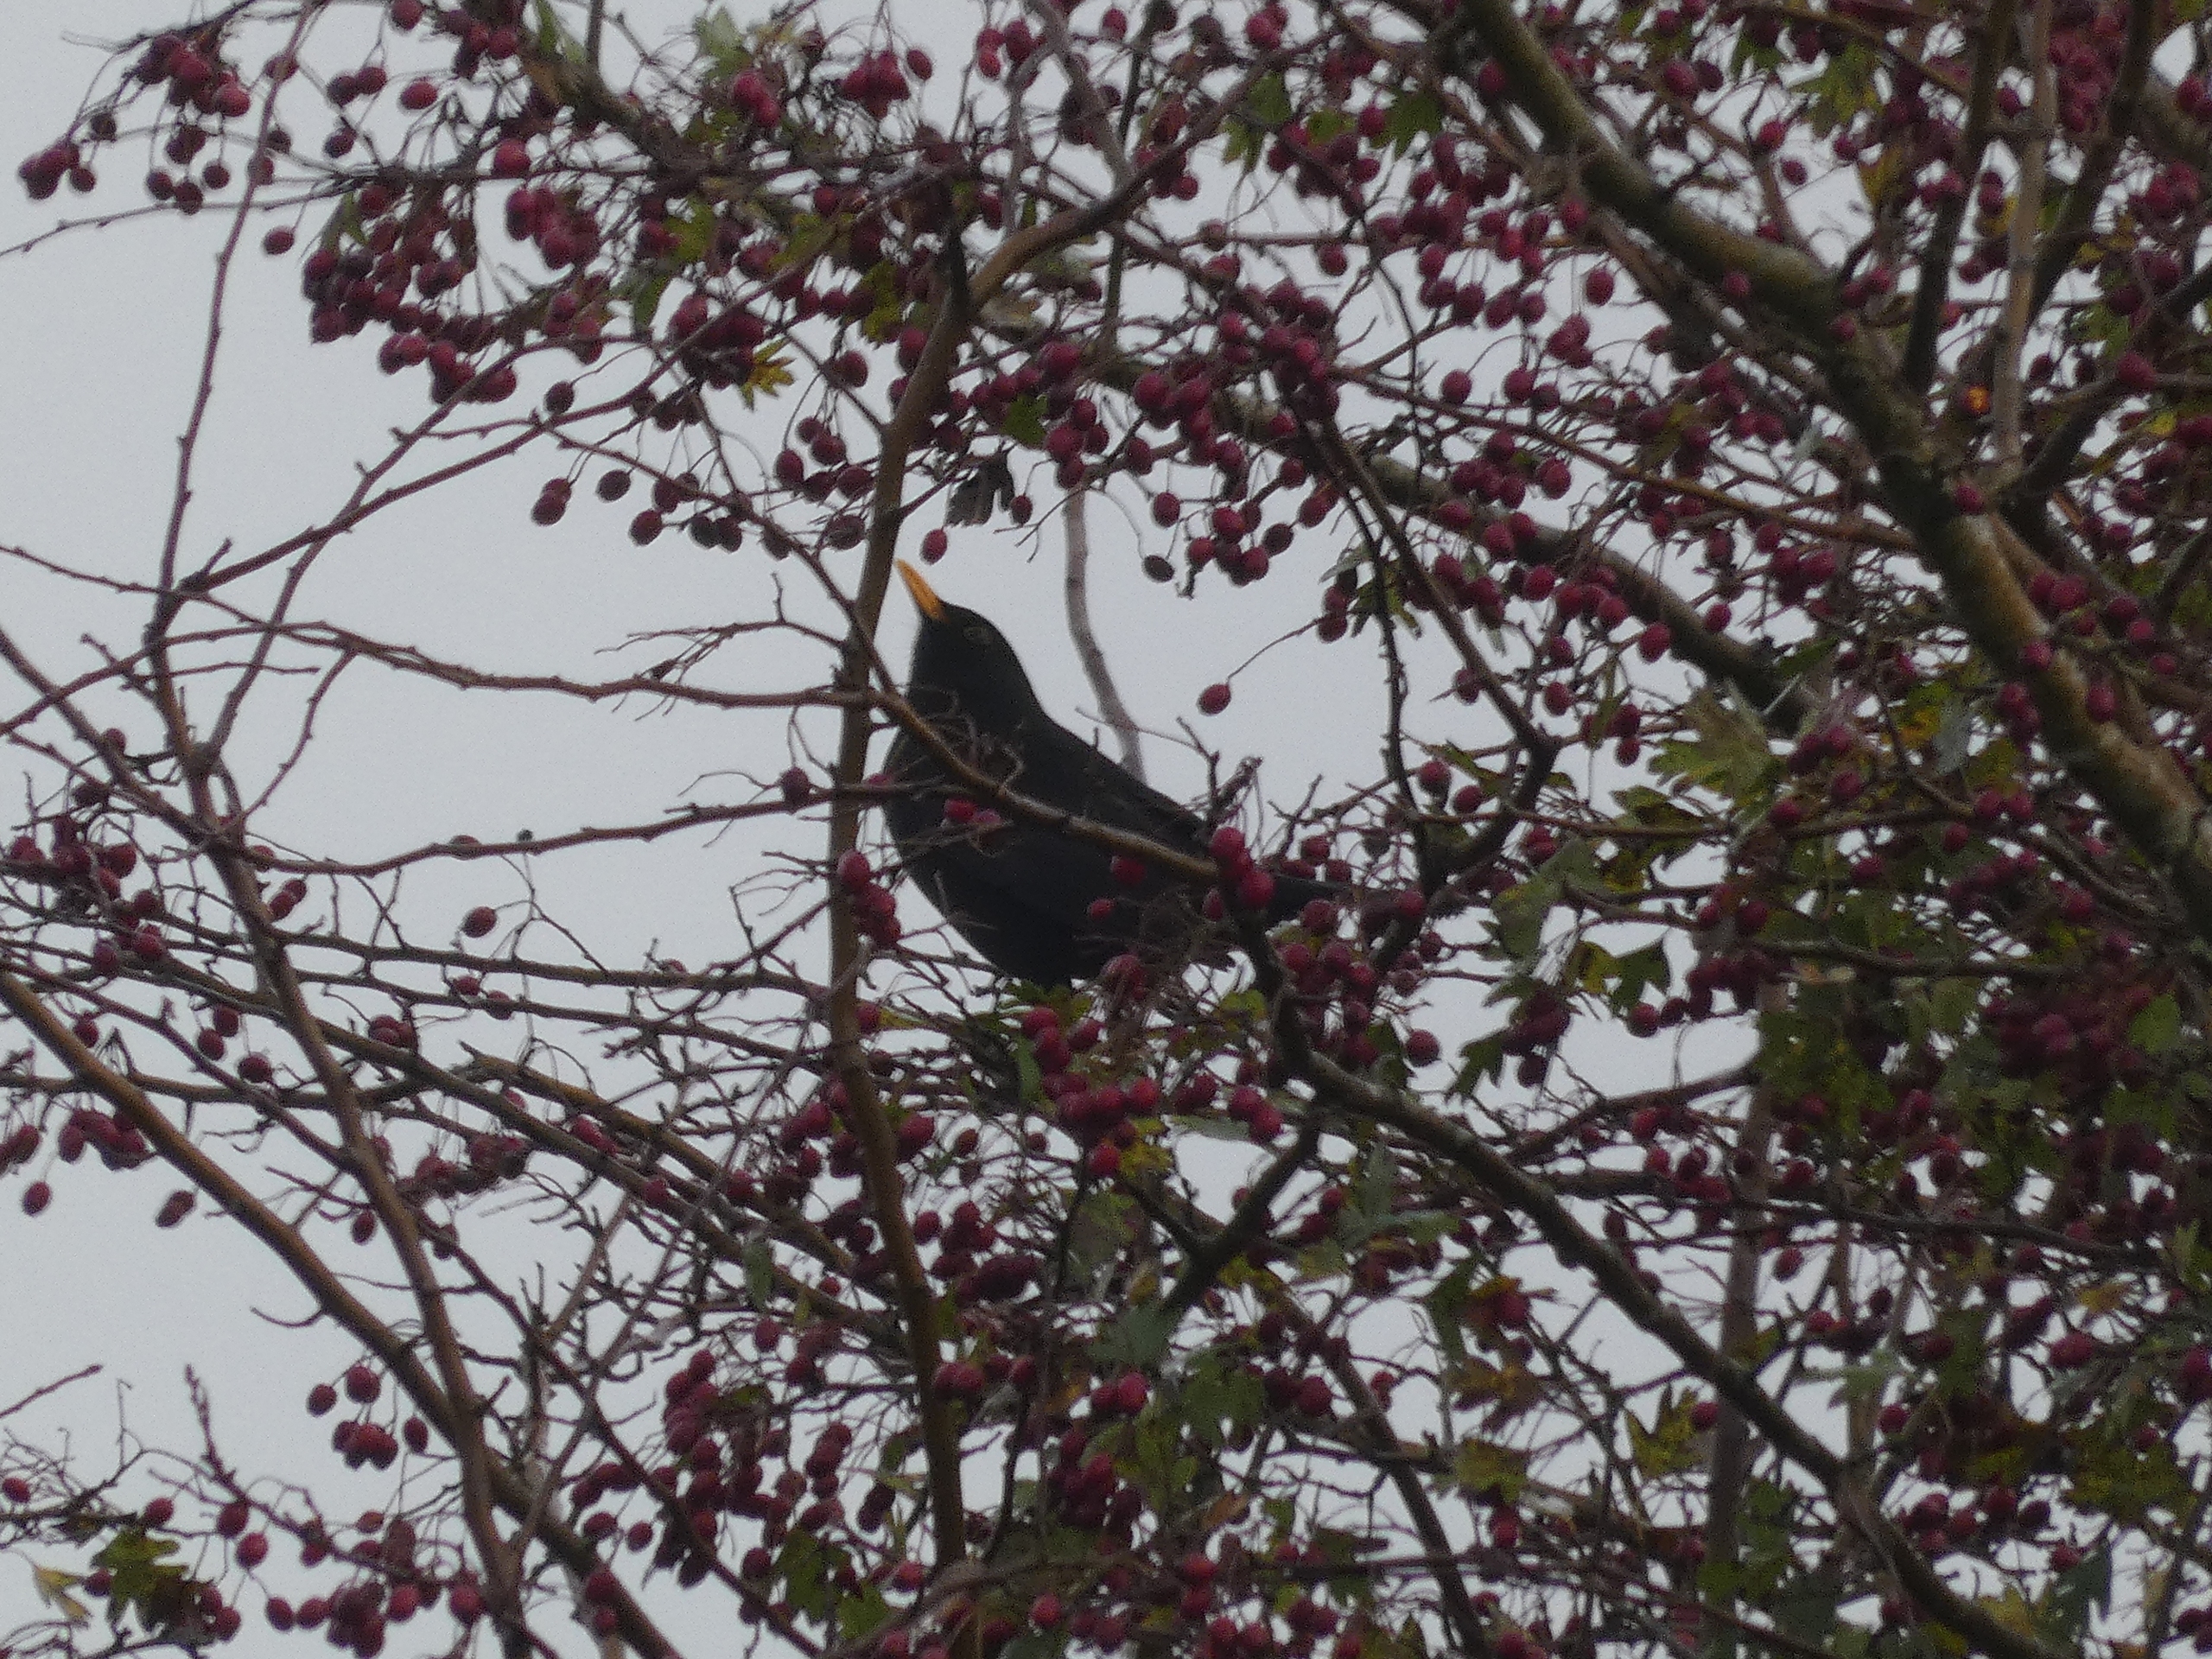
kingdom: Animalia
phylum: Chordata
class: Aves
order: Passeriformes
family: Turdidae
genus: Turdus
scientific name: Turdus merula
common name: Solsort
